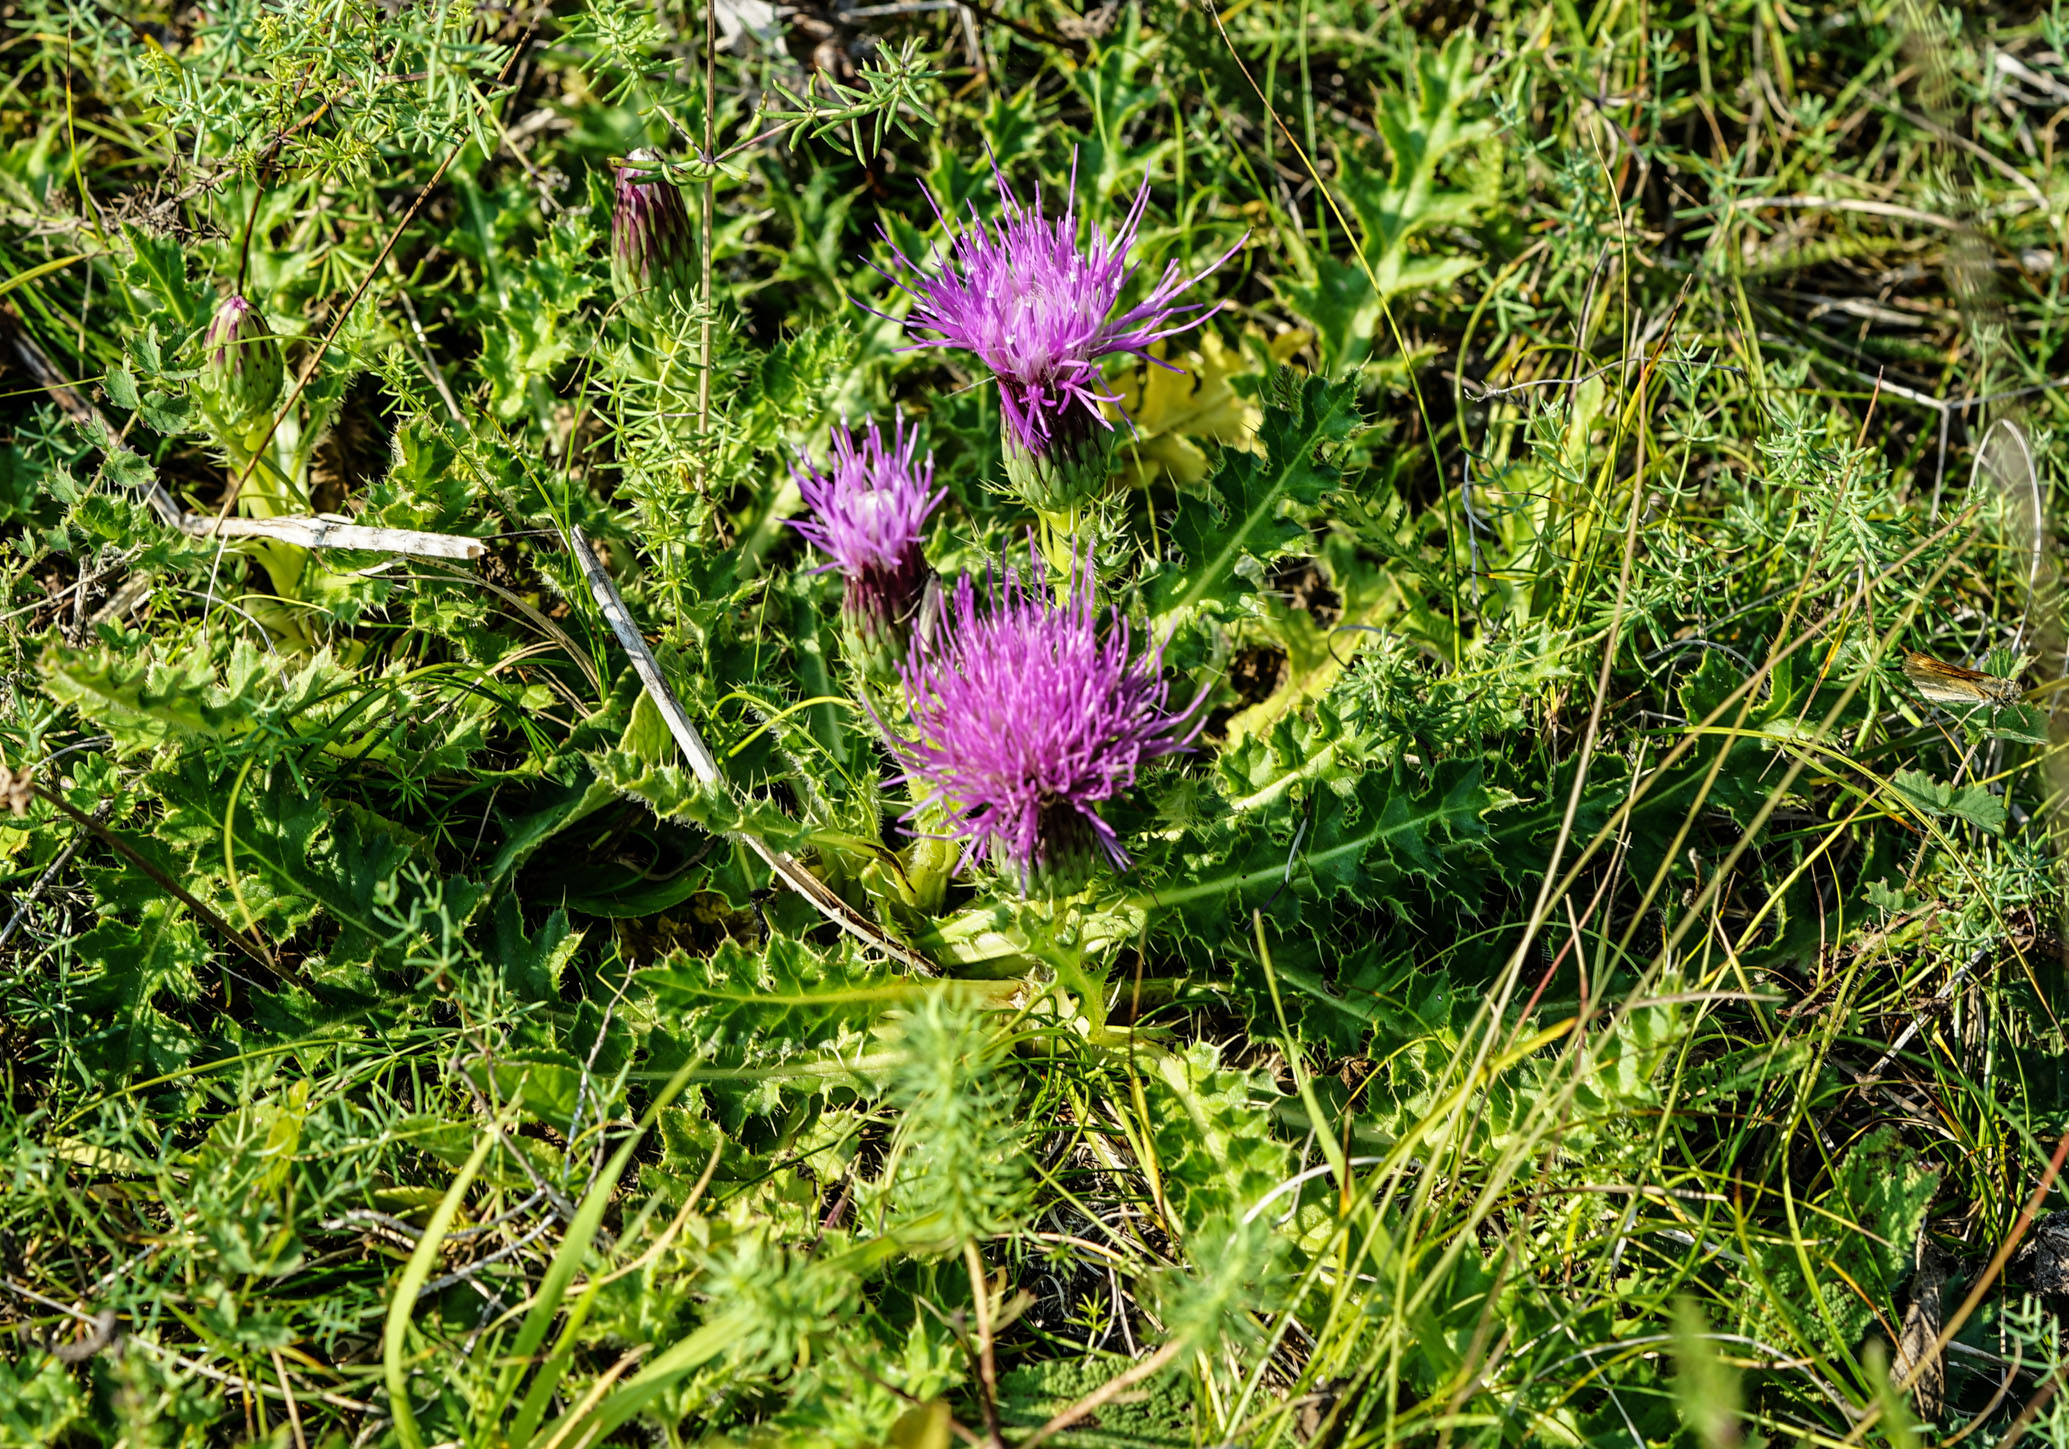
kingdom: Plantae
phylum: Tracheophyta
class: Magnoliopsida
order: Asterales
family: Asteraceae
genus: Cirsium
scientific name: Cirsium acaulon
